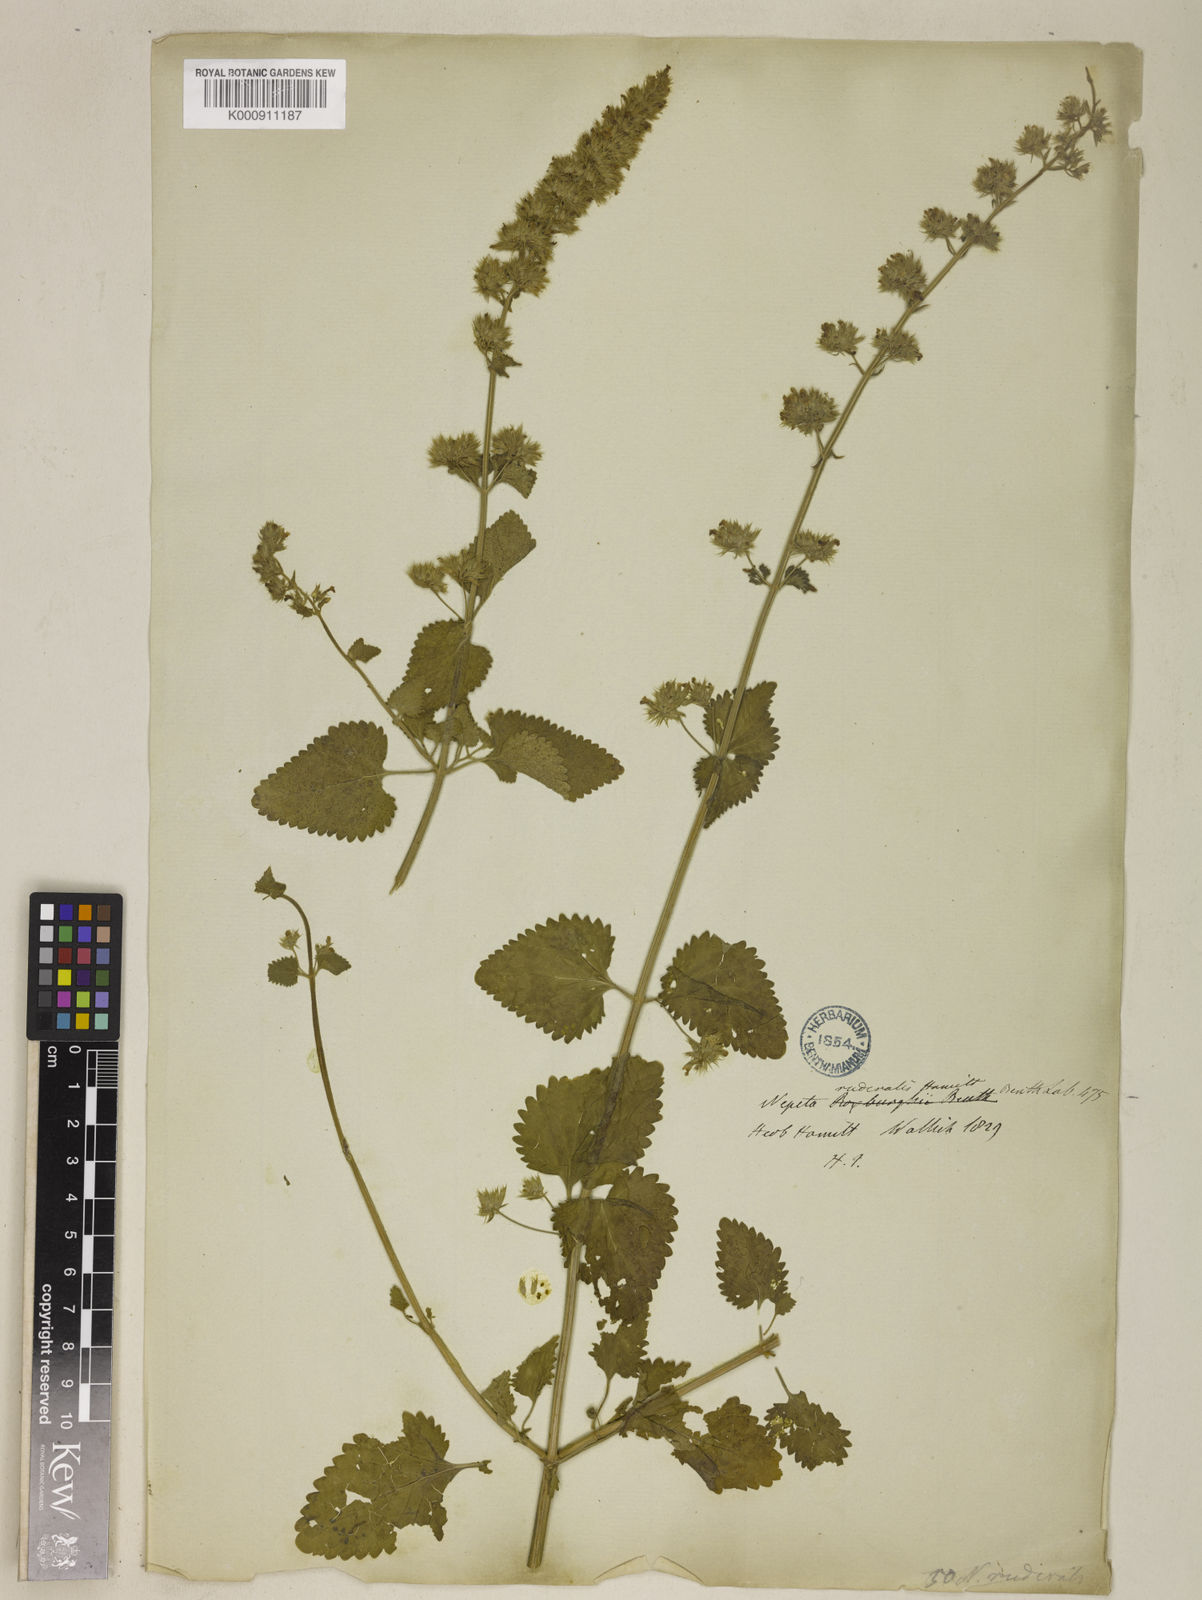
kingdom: Plantae
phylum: Tracheophyta
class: Magnoliopsida
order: Lamiales
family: Lamiaceae
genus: Nepeta
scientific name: Nepeta hindostana
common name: Indian catnip
